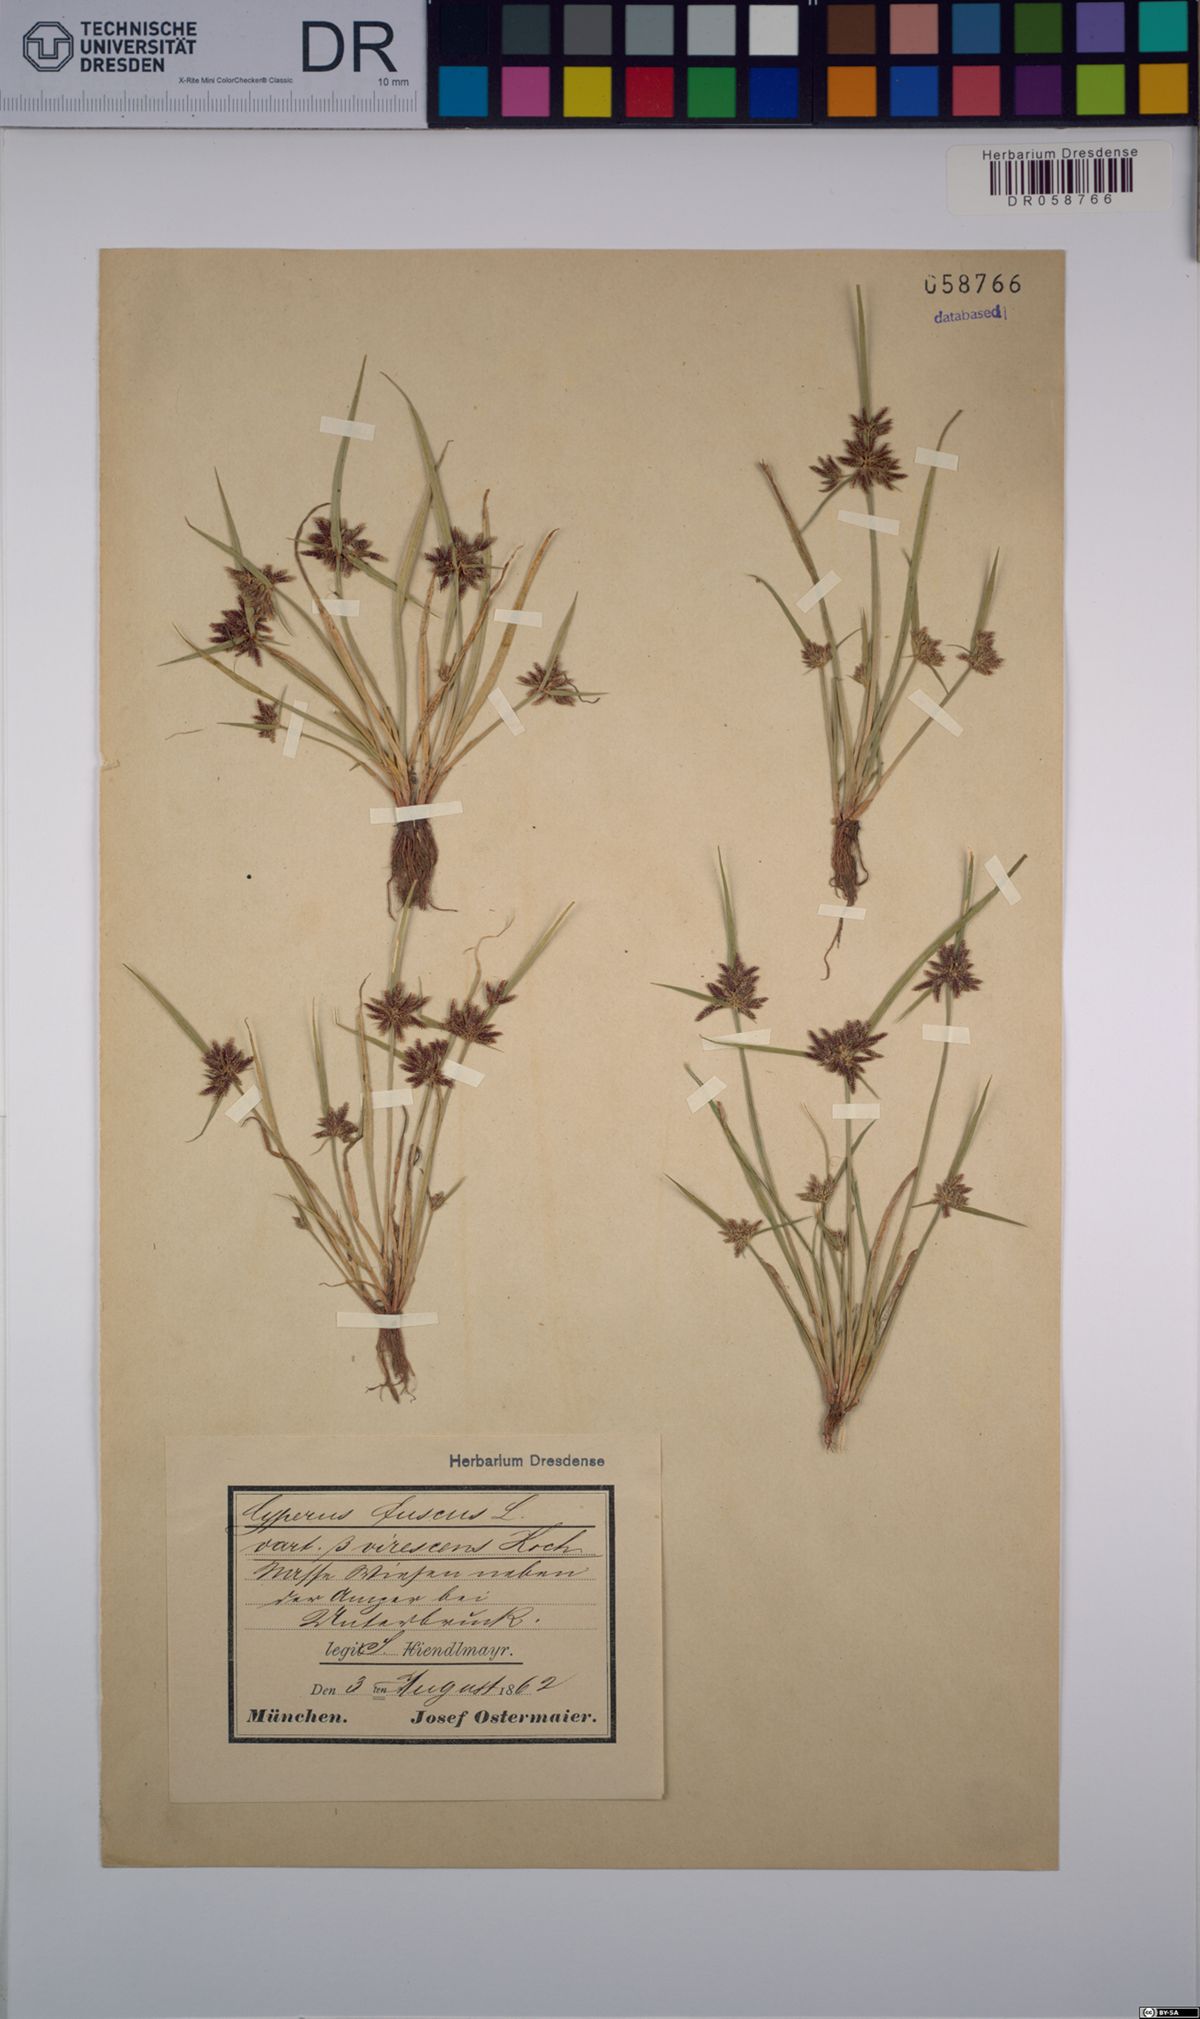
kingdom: Plantae
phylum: Tracheophyta
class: Liliopsida
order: Poales
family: Cyperaceae
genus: Cyperus
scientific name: Cyperus fuscus
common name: Brown galingale
